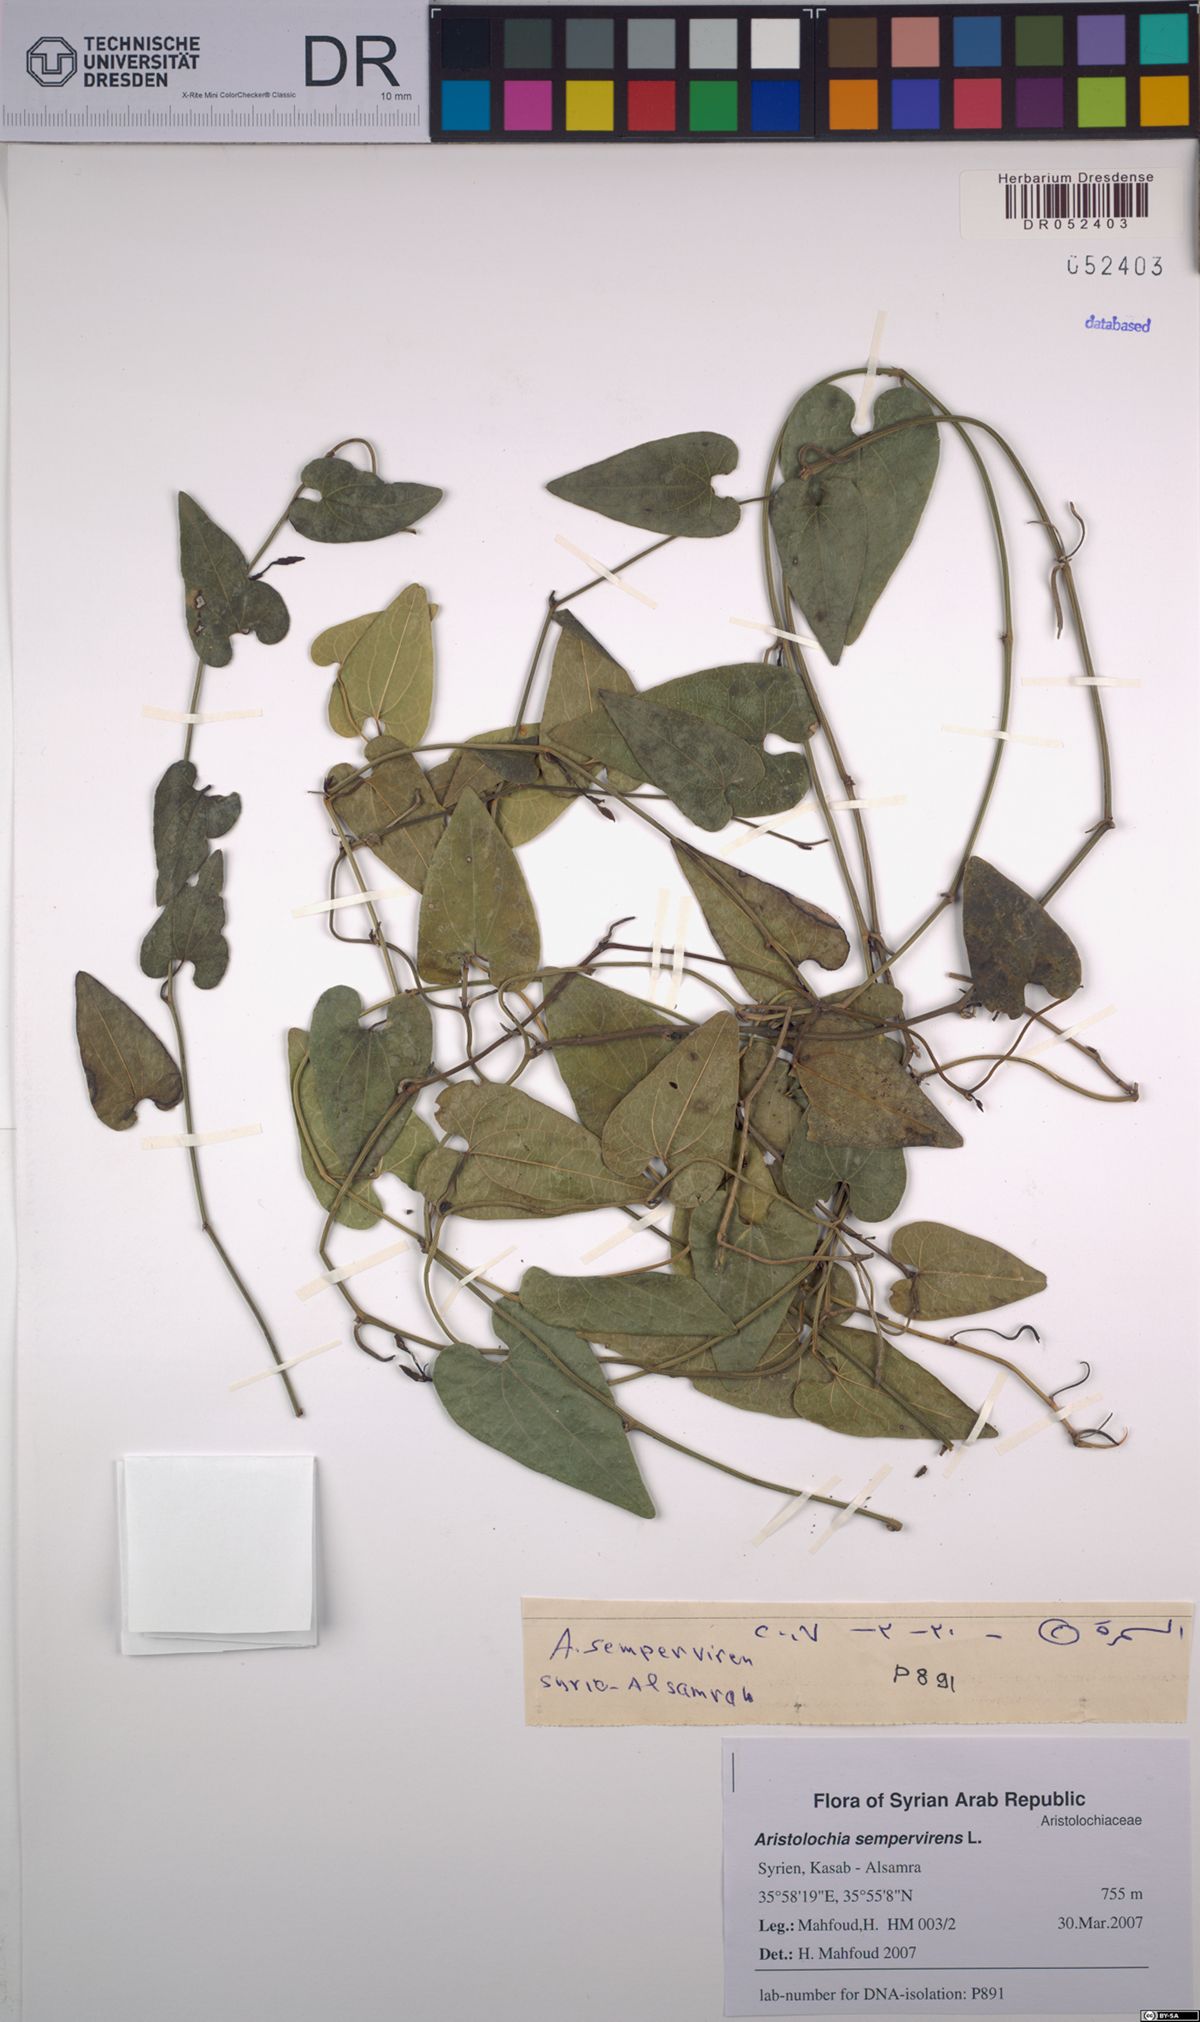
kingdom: Plantae
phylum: Tracheophyta
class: Magnoliopsida
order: Piperales
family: Aristolochiaceae
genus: Aristolochia
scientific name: Aristolochia sempervirens
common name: Long birthwort
